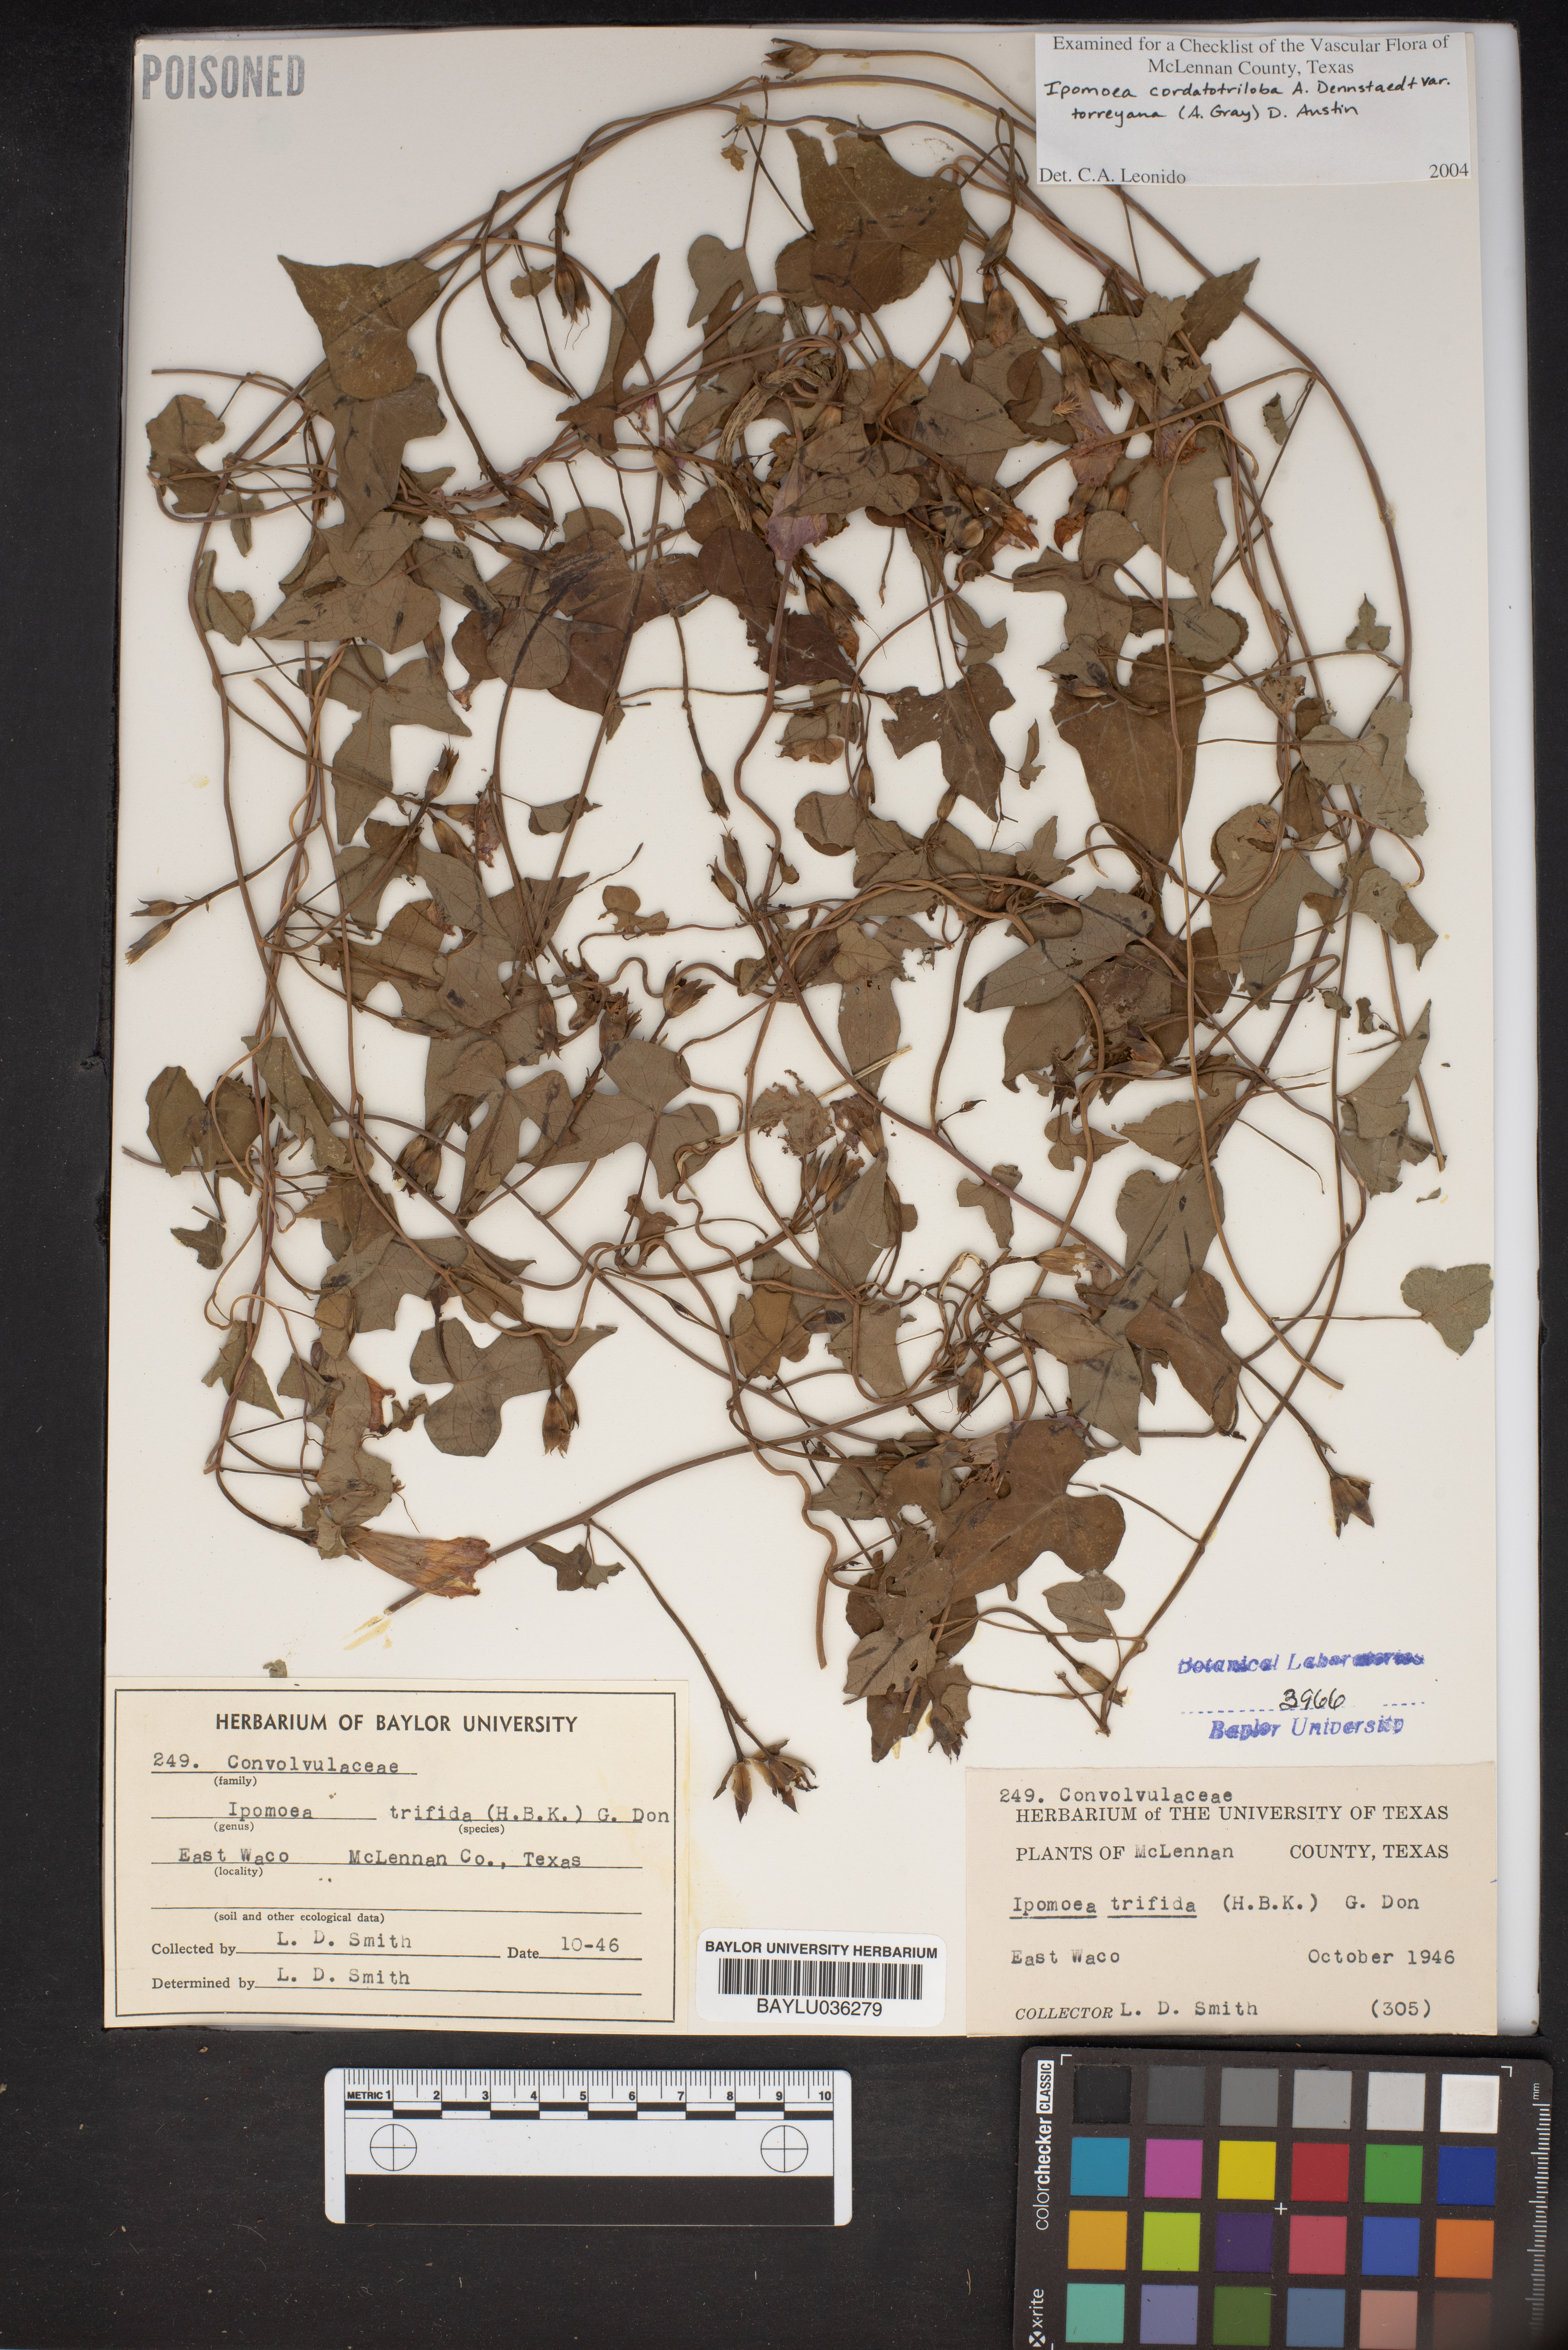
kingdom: Plantae
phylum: Tracheophyta
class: Magnoliopsida
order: Solanales
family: Convolvulaceae
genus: Ipomoea
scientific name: Ipomoea trifida
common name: Cotton morningglory
